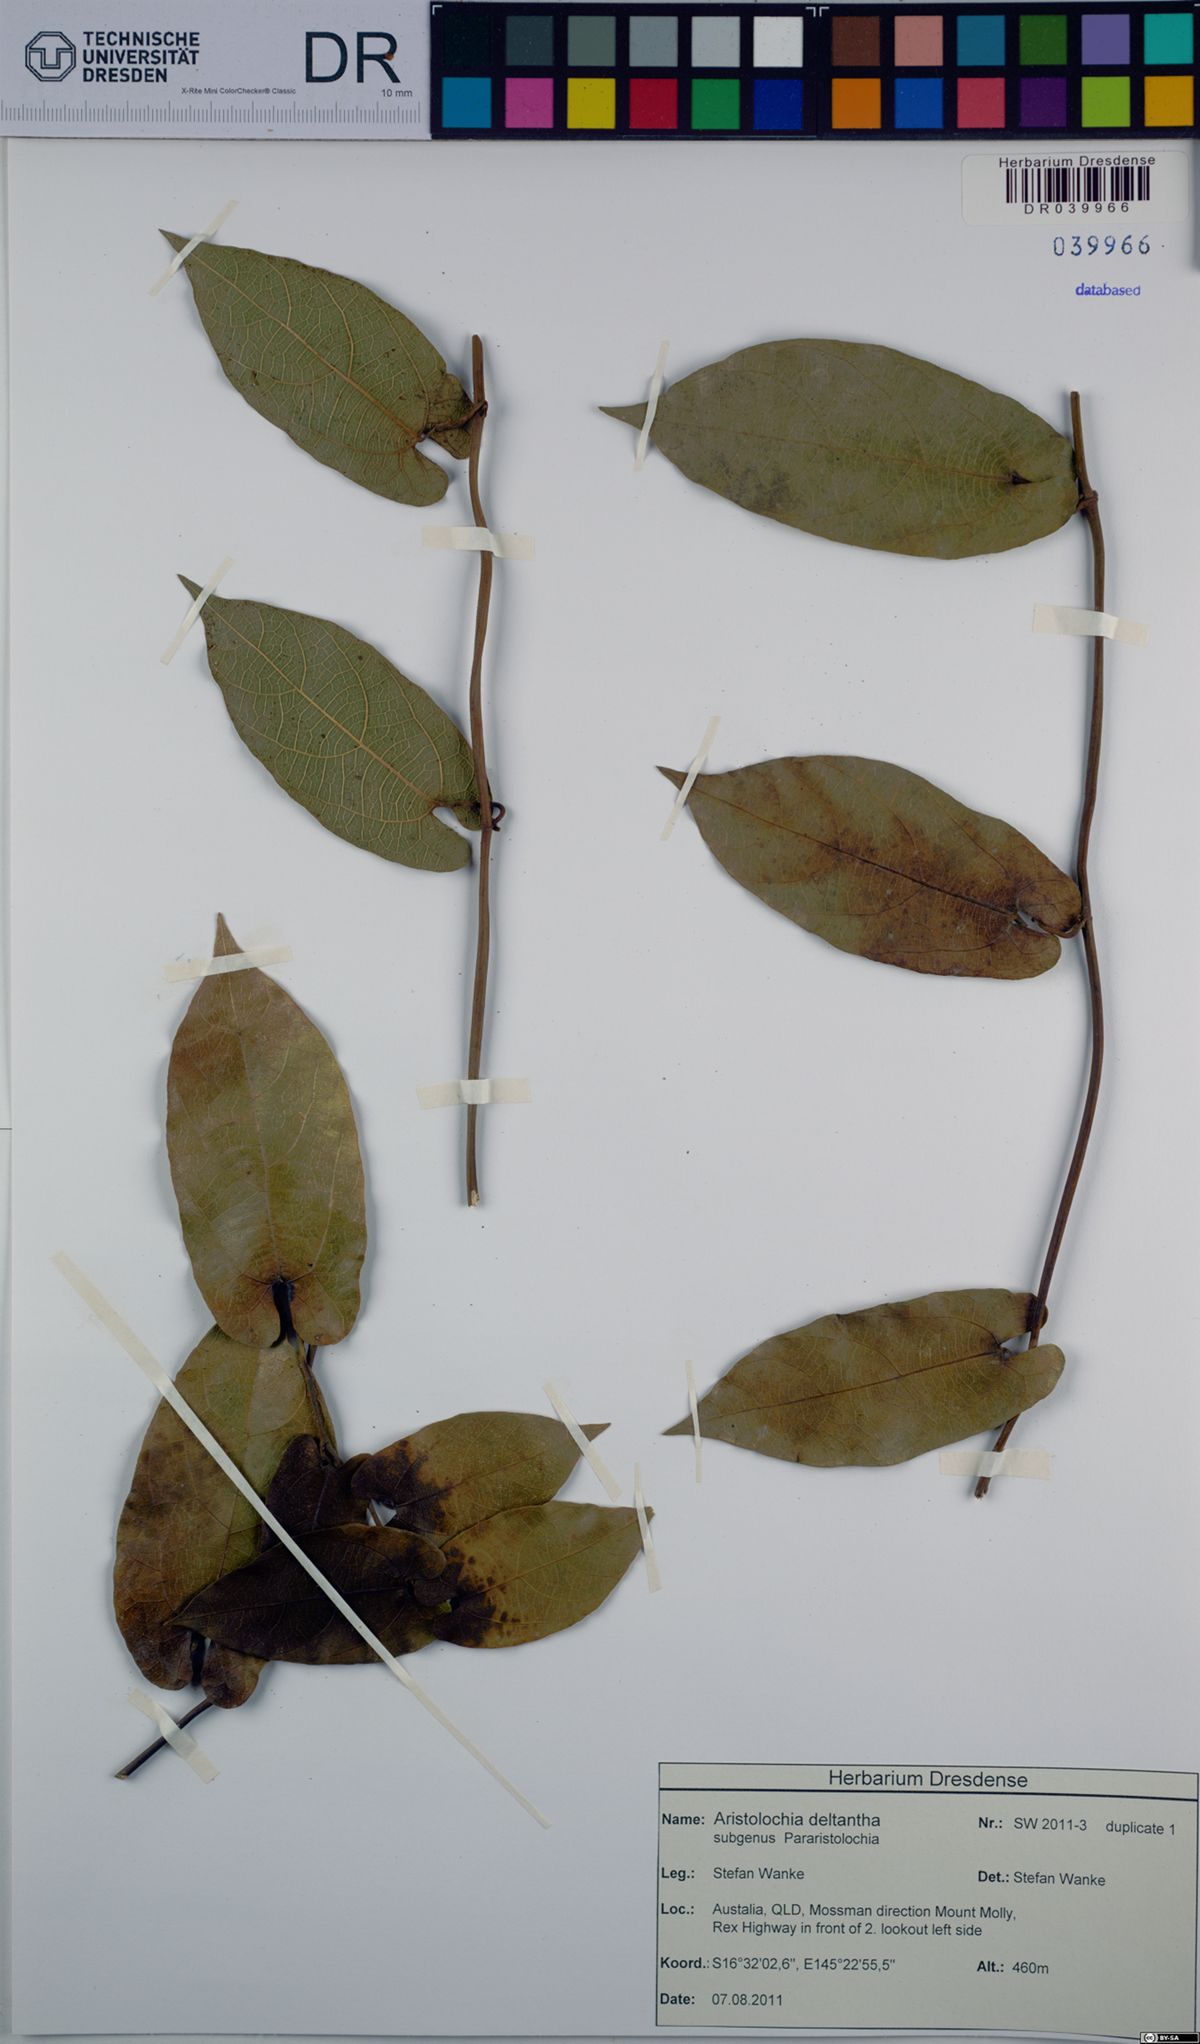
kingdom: Plantae
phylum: Tracheophyta
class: Magnoliopsida
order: Piperales
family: Aristolochiaceae
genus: Aristolochia
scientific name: Aristolochia deltantha
